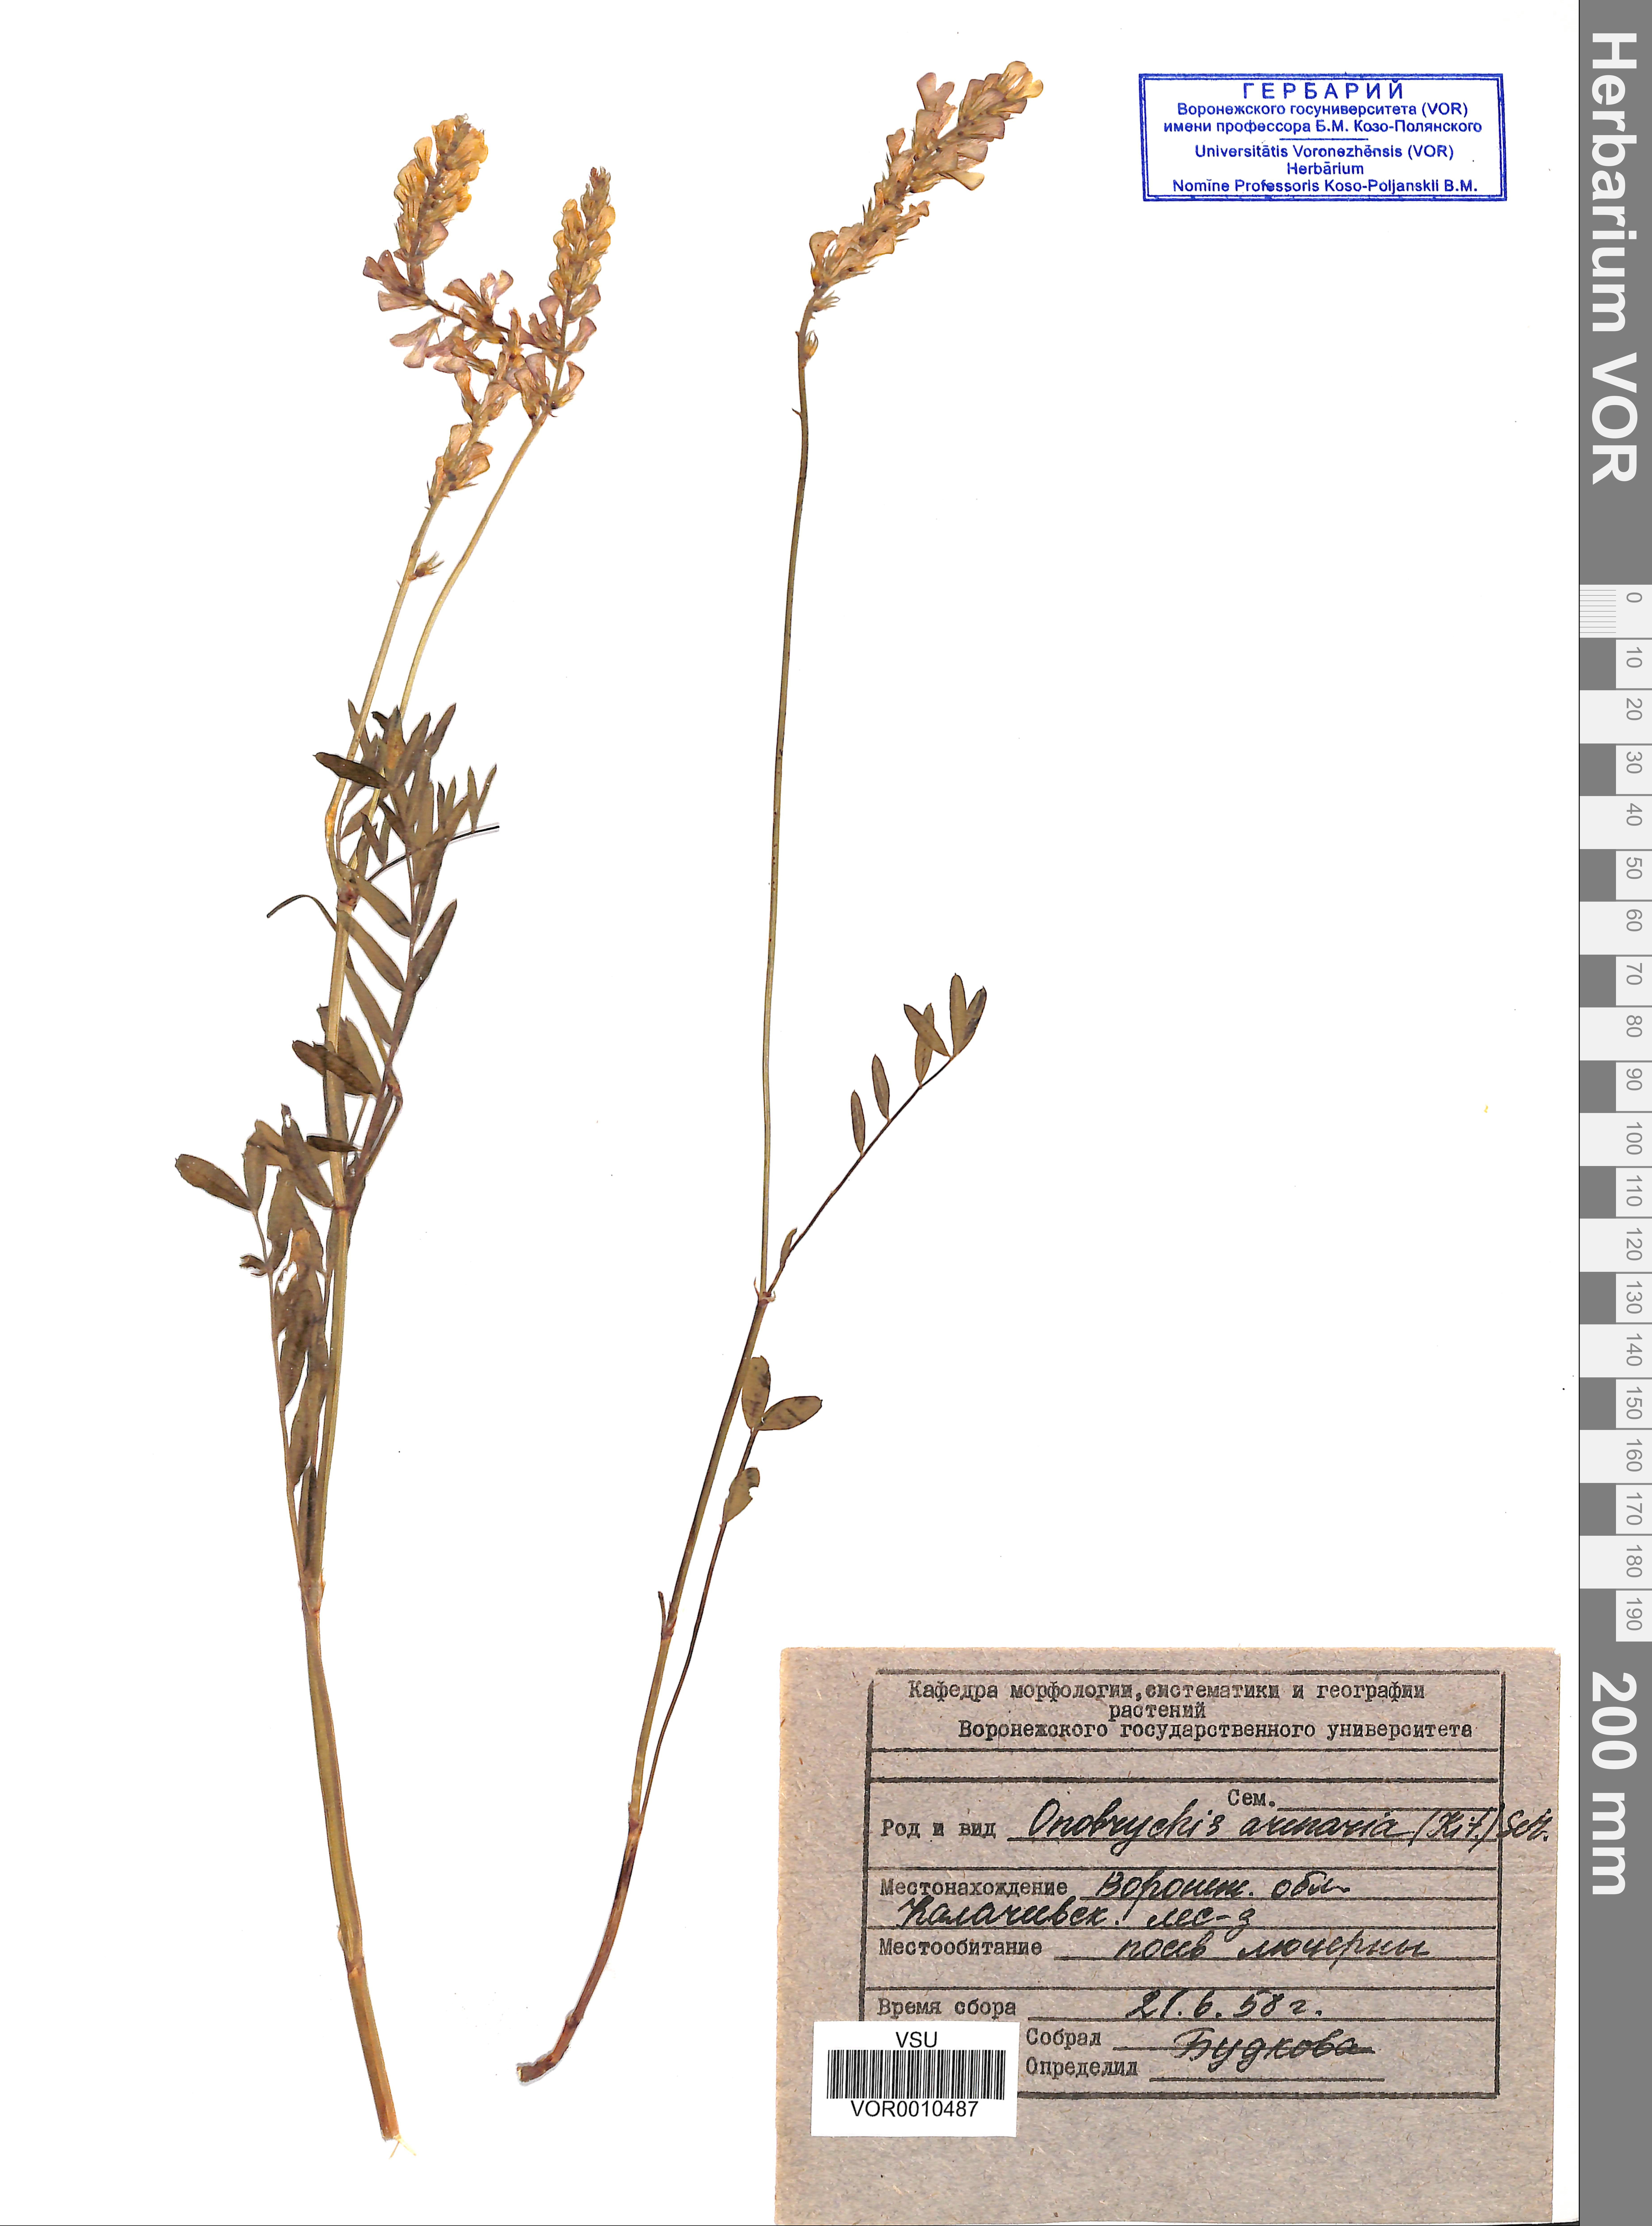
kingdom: Plantae
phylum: Tracheophyta
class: Magnoliopsida
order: Fabales
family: Fabaceae
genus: Onobrychis
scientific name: Onobrychis arenaria
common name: Sand esparcet
